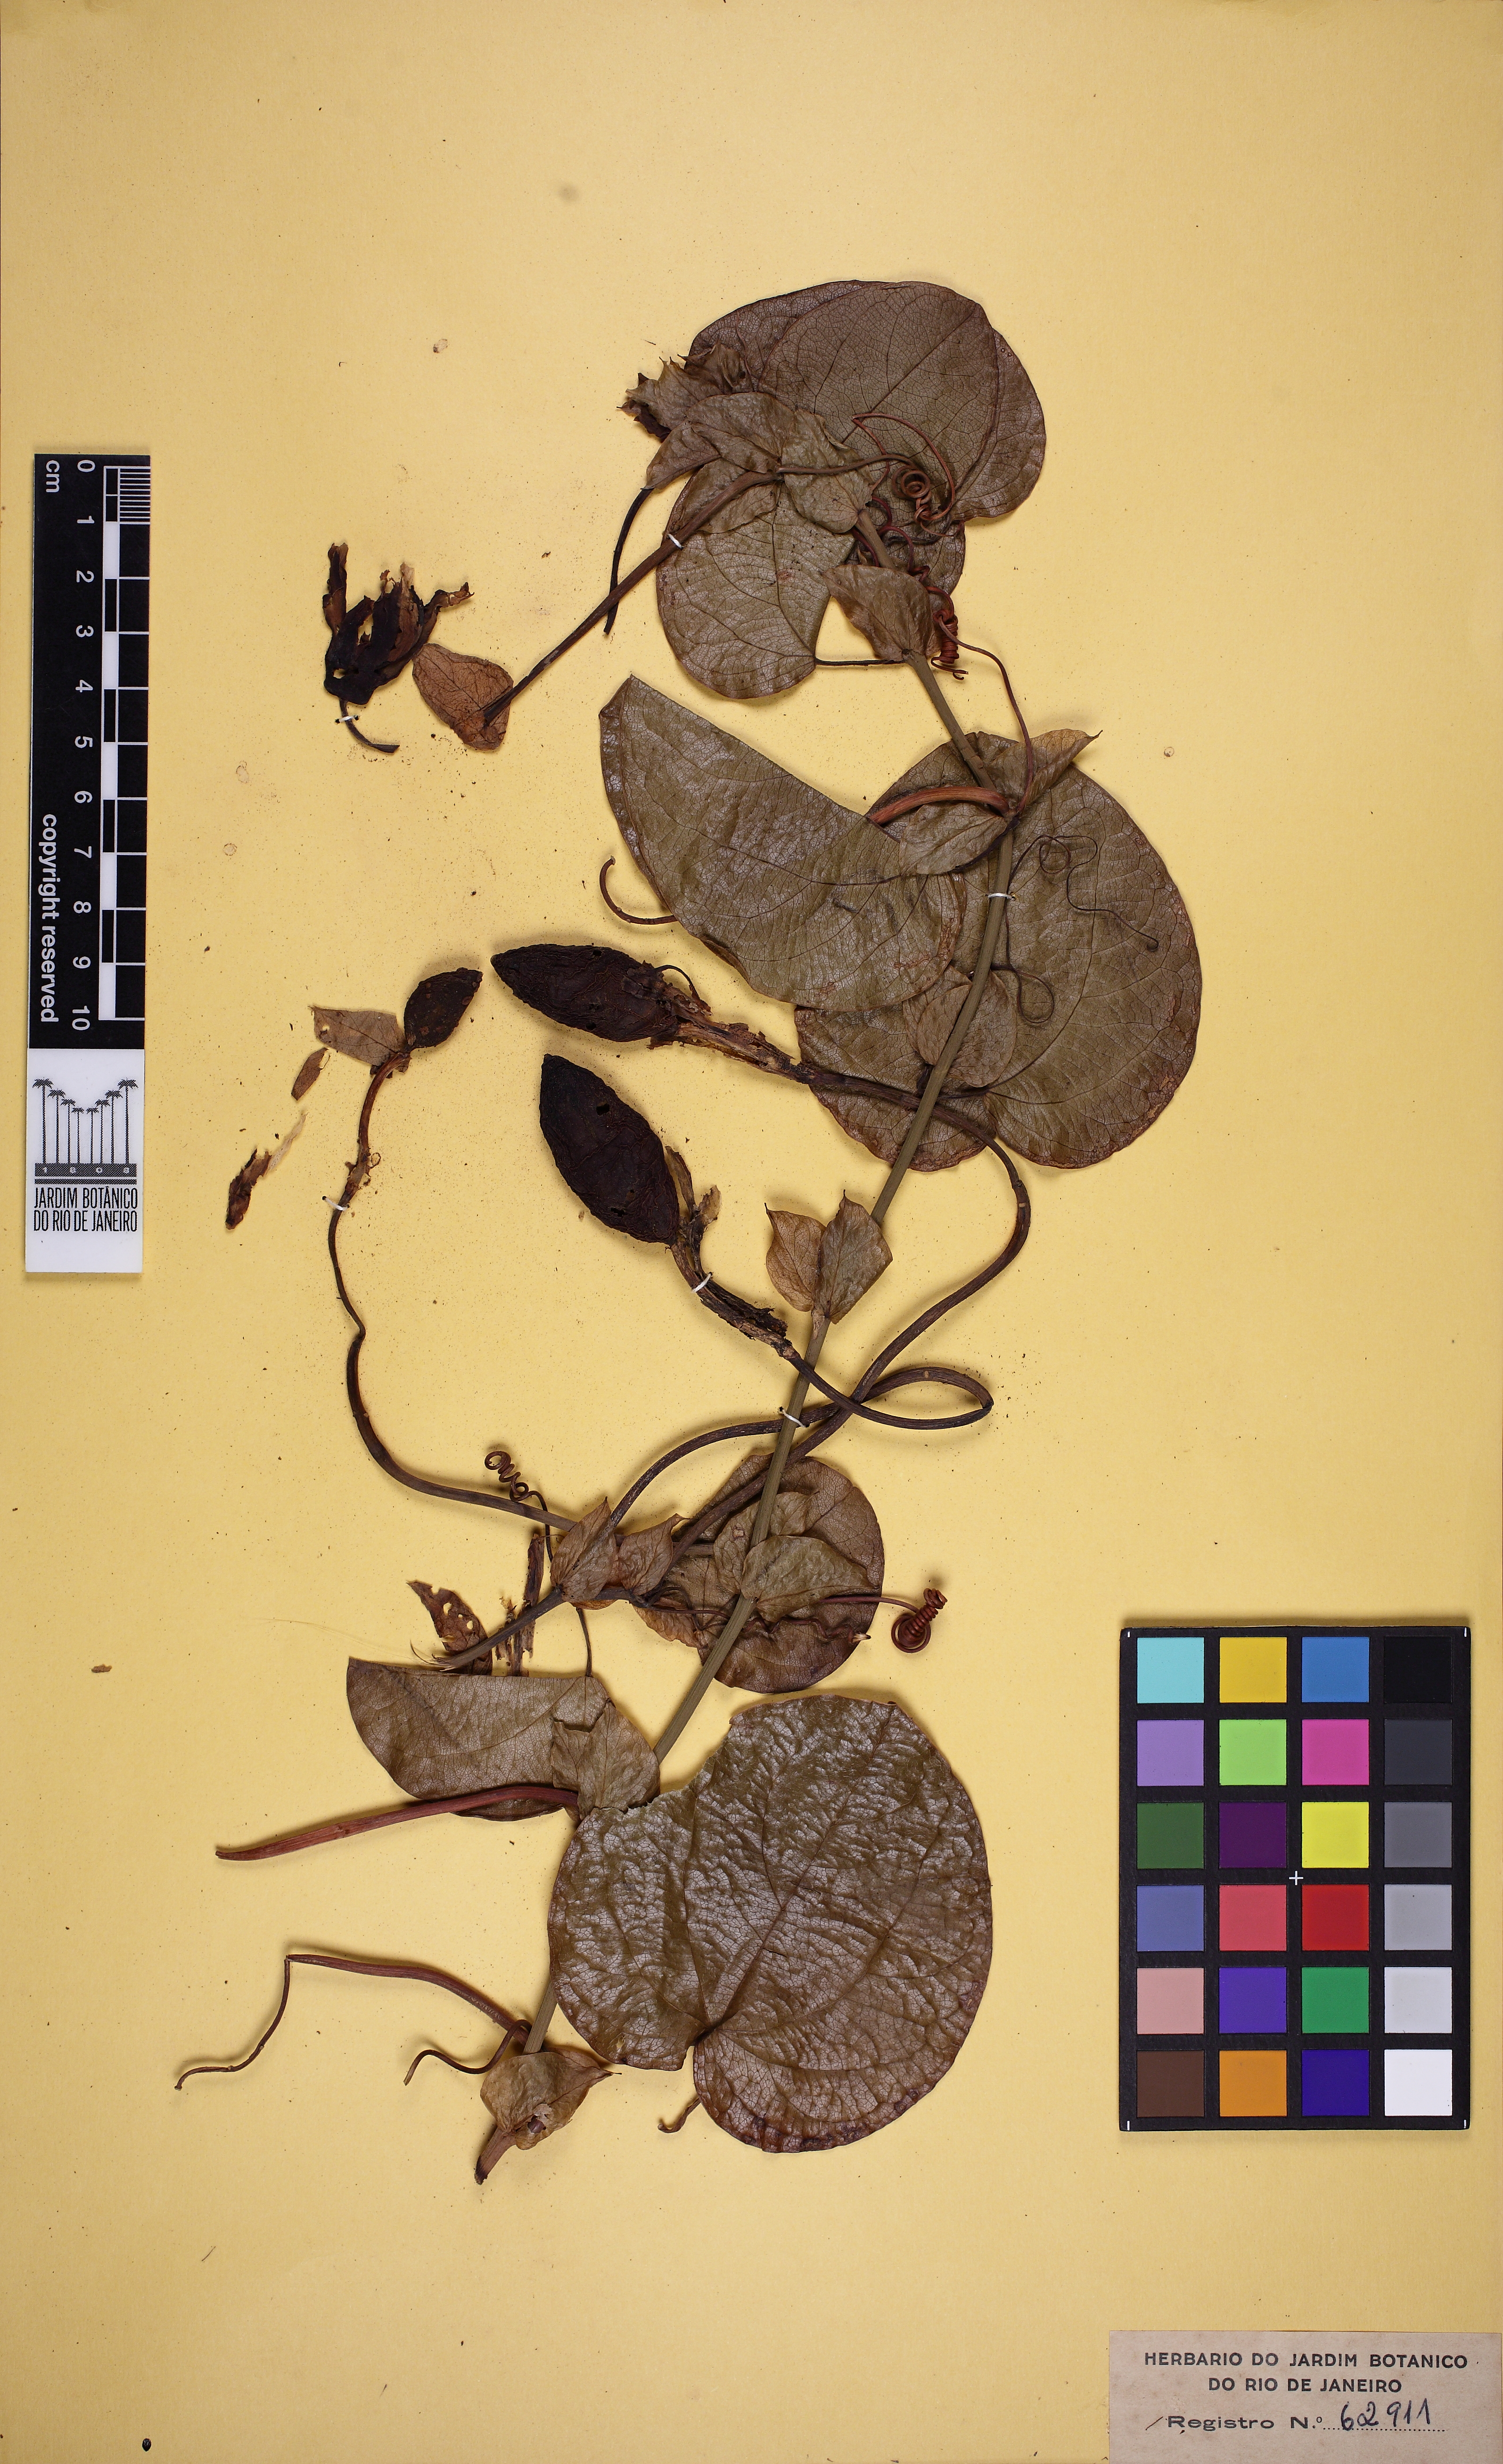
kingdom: Plantae
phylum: Tracheophyta
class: Magnoliopsida
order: Malpighiales
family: Passifloraceae
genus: Passiflora
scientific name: Passiflora mucronata
